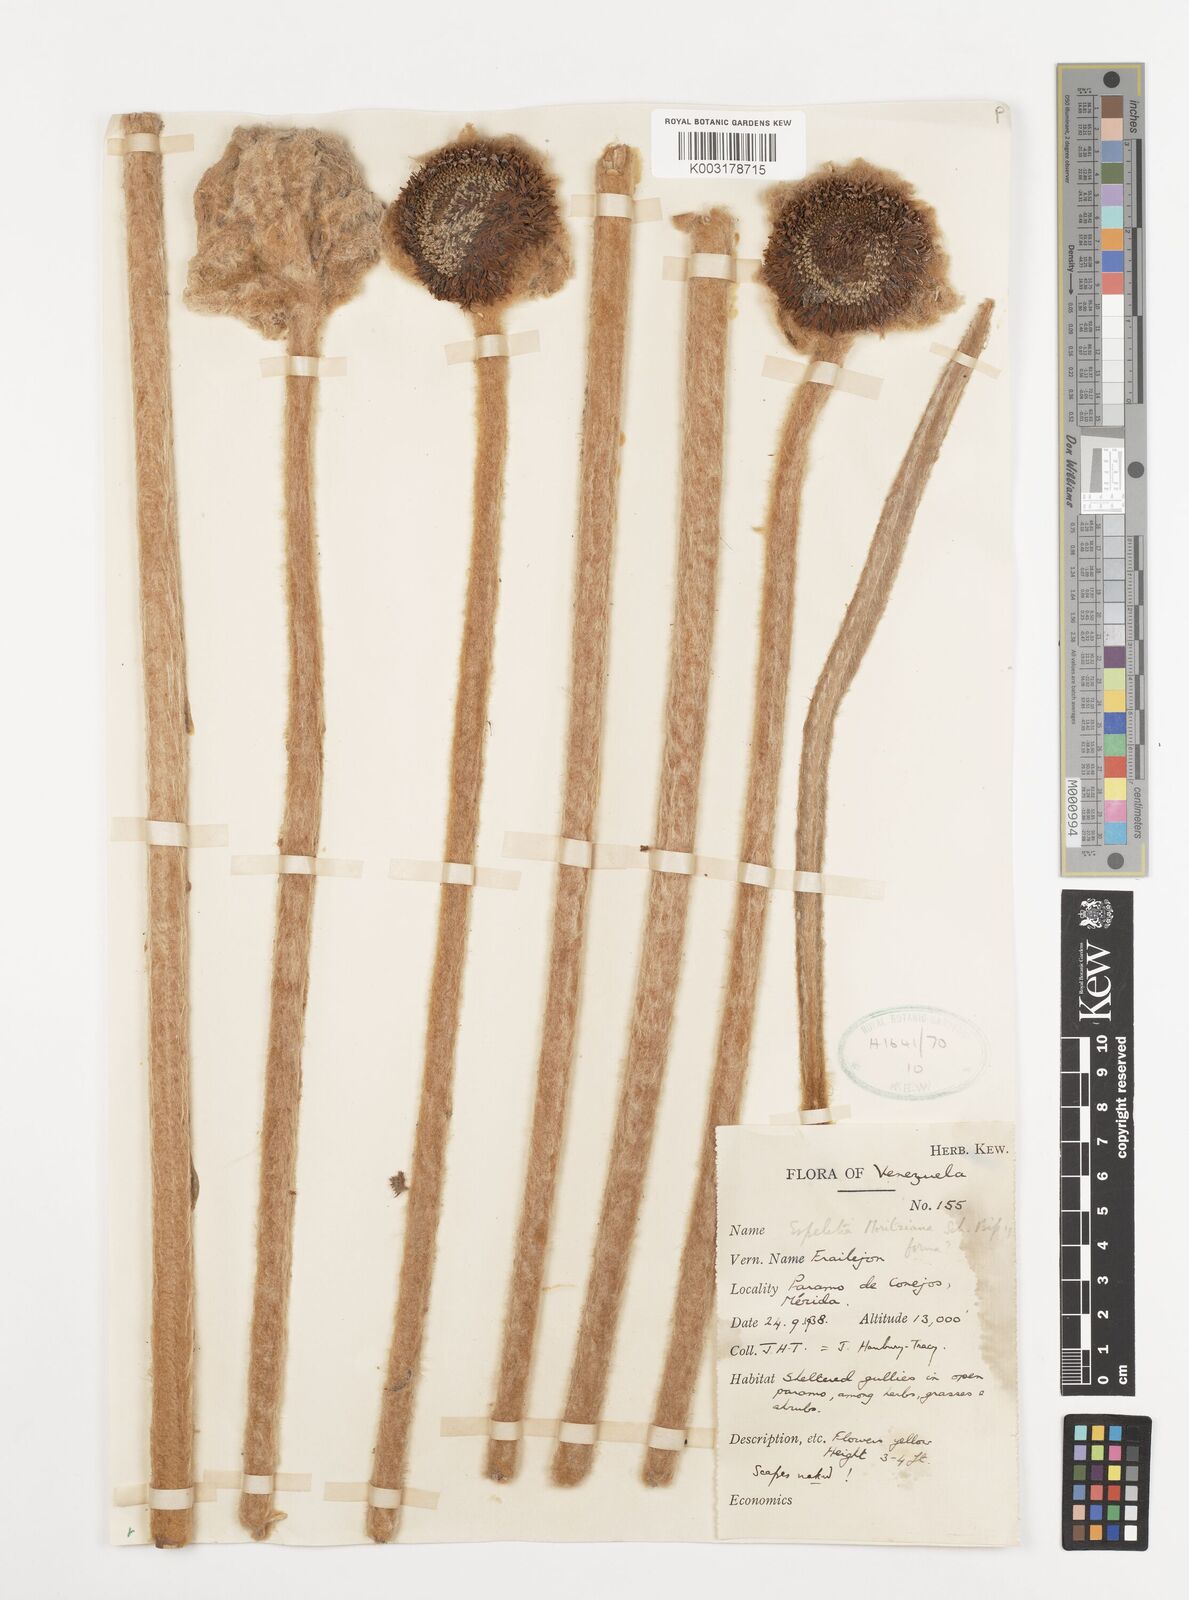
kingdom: Plantae
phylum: Tracheophyta
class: Magnoliopsida
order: Asterales
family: Asteraceae
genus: Espeletia
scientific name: Espeletia moritziana
